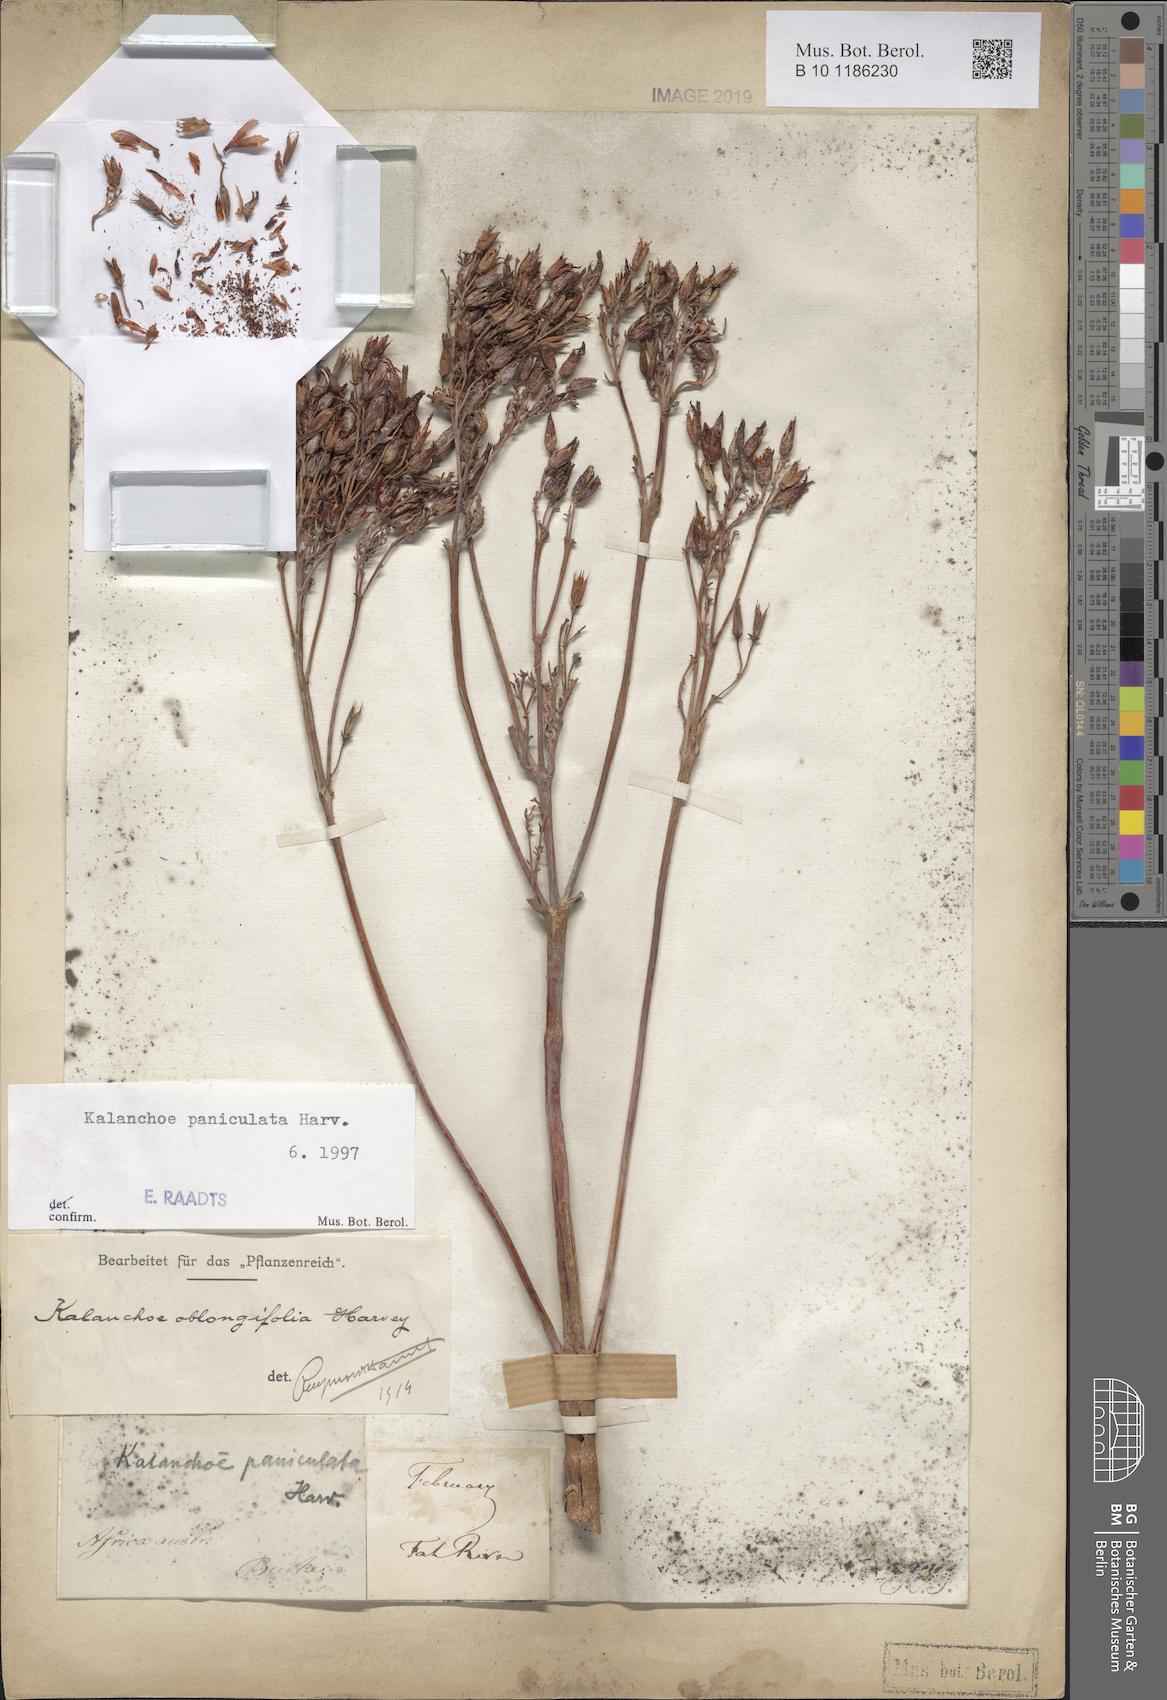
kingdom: Plantae
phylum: Tracheophyta
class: Magnoliopsida
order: Saxifragales
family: Crassulaceae
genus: Kalanchoe
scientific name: Kalanchoe paniculata
